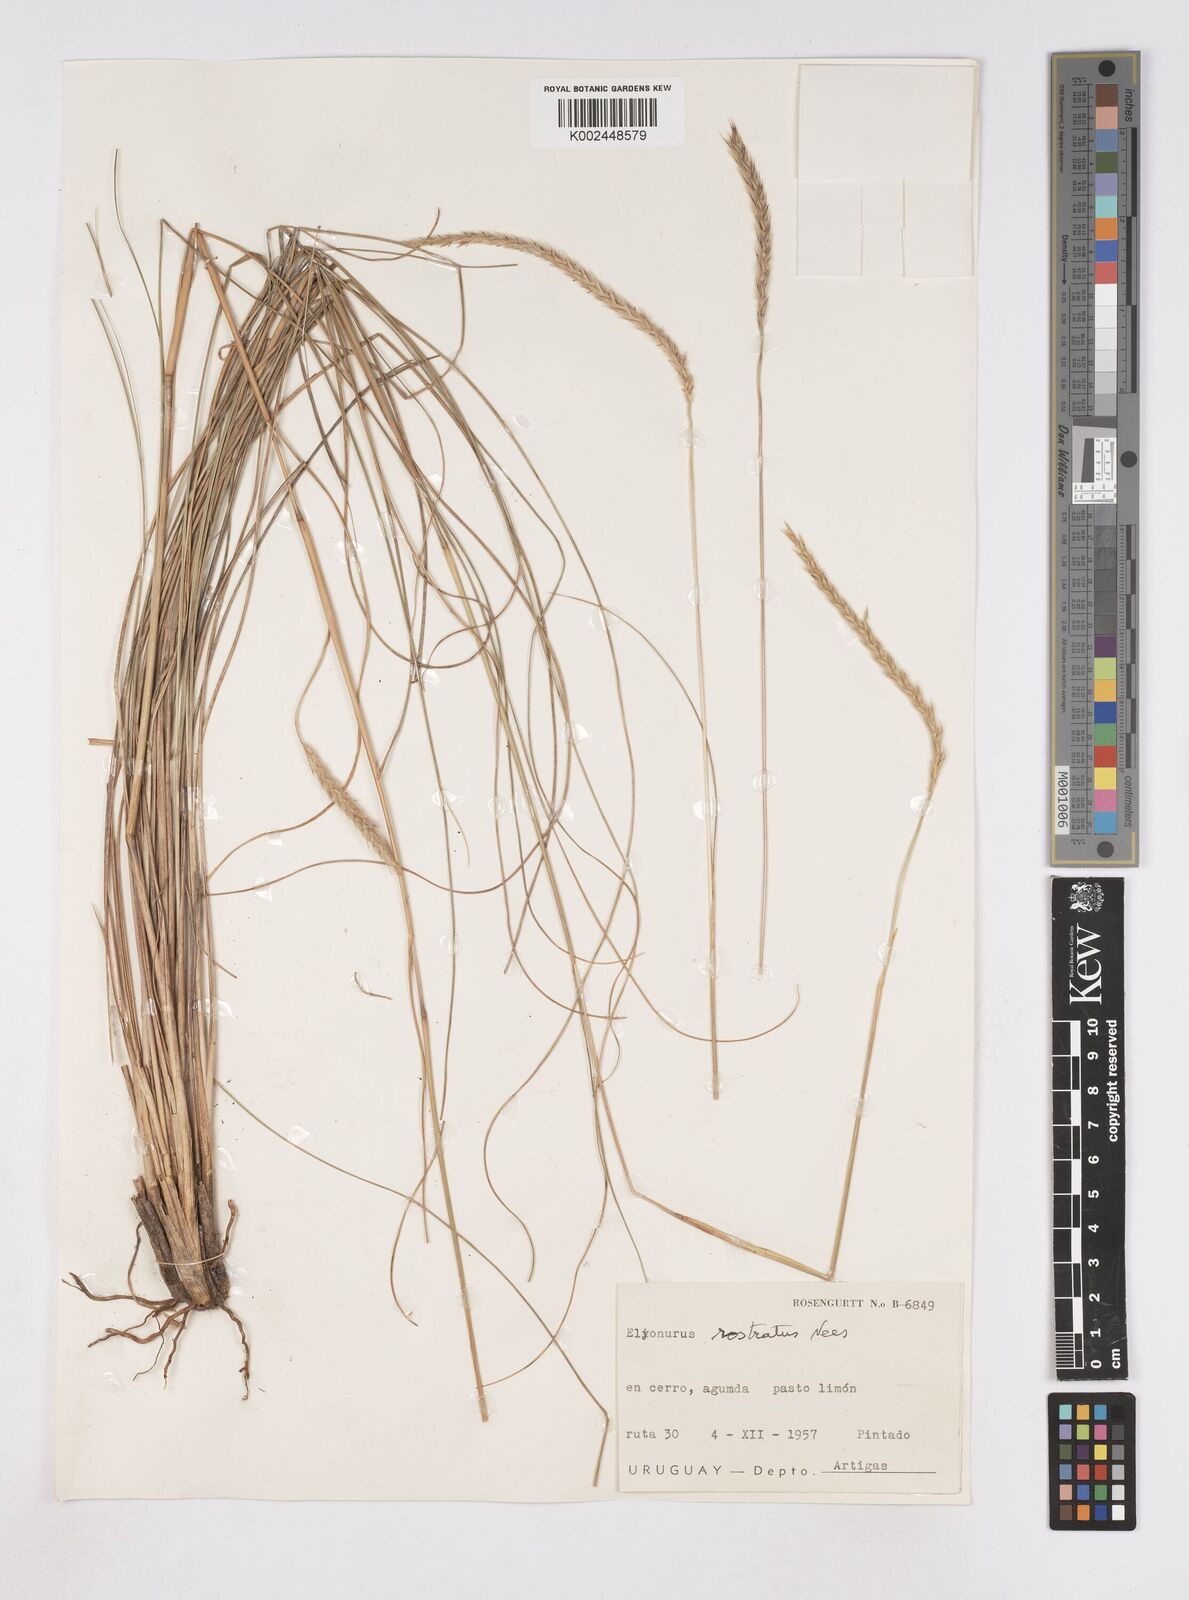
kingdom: Plantae
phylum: Tracheophyta
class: Liliopsida
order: Poales
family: Poaceae
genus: Elionurus
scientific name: Elionurus muticus
